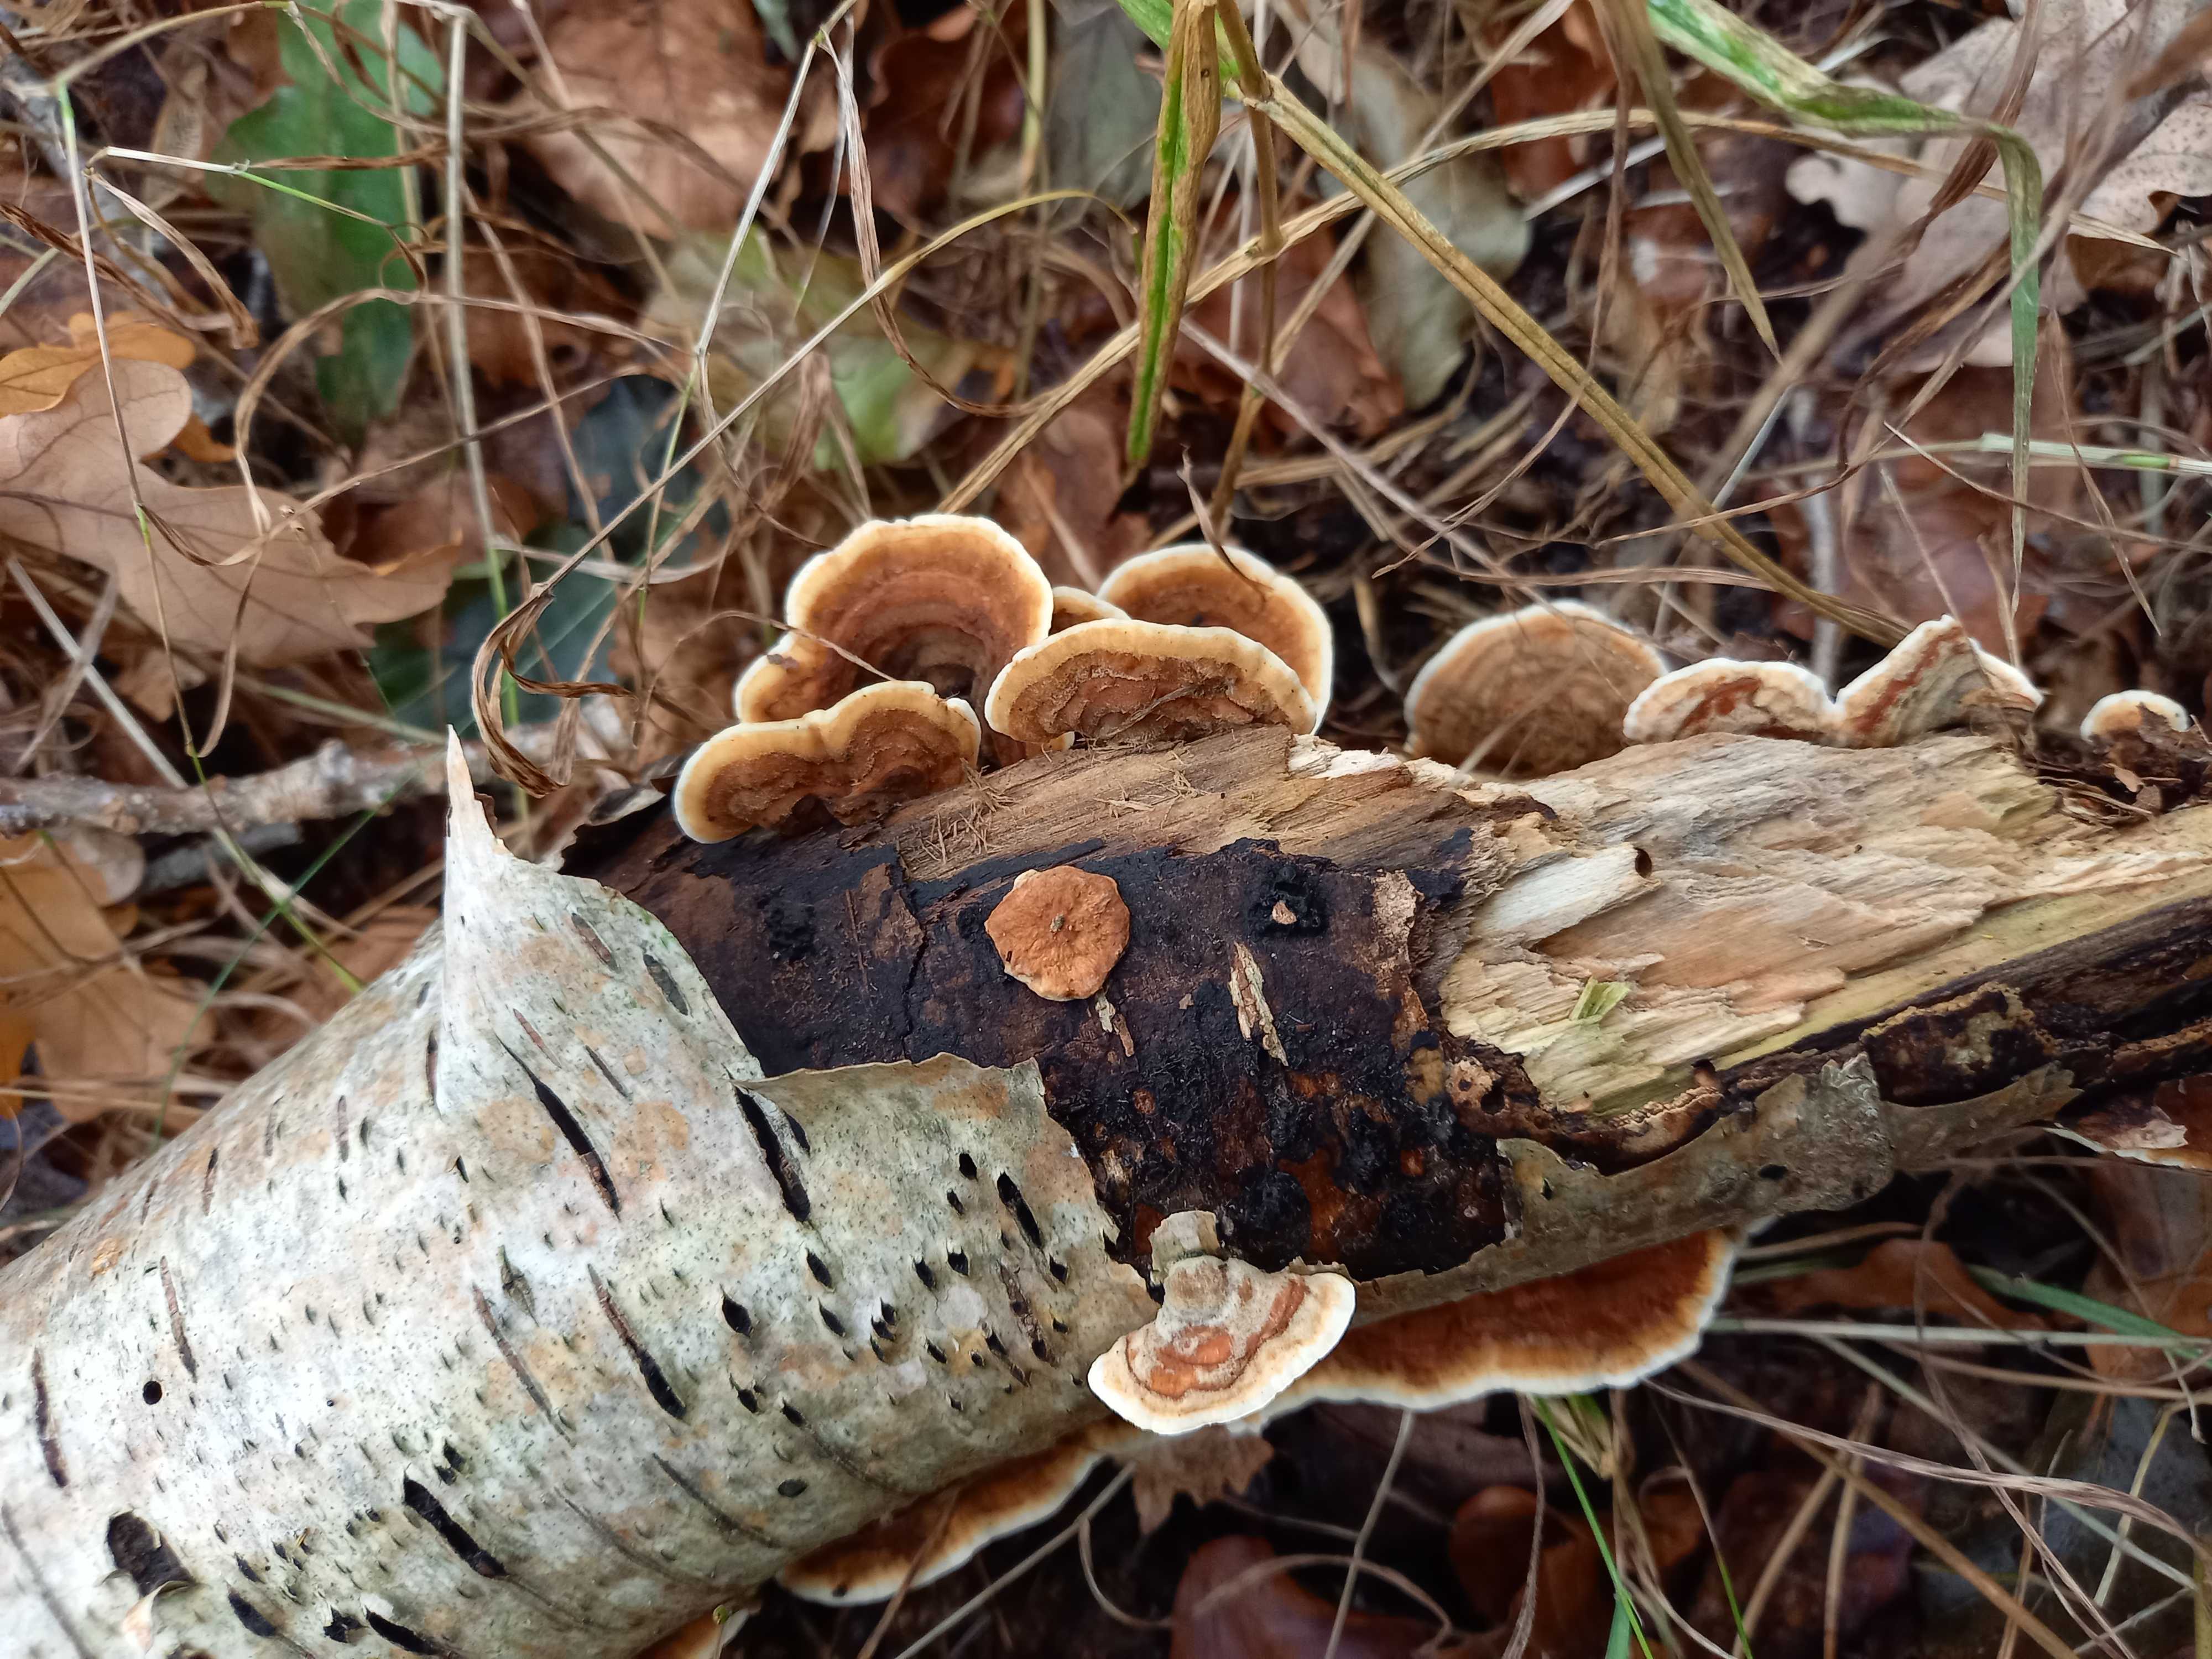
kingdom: Fungi
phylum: Basidiomycota
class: Agaricomycetes
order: Russulales
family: Stereaceae
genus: Stereum
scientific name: Stereum hirsutum
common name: håret lædersvamp
